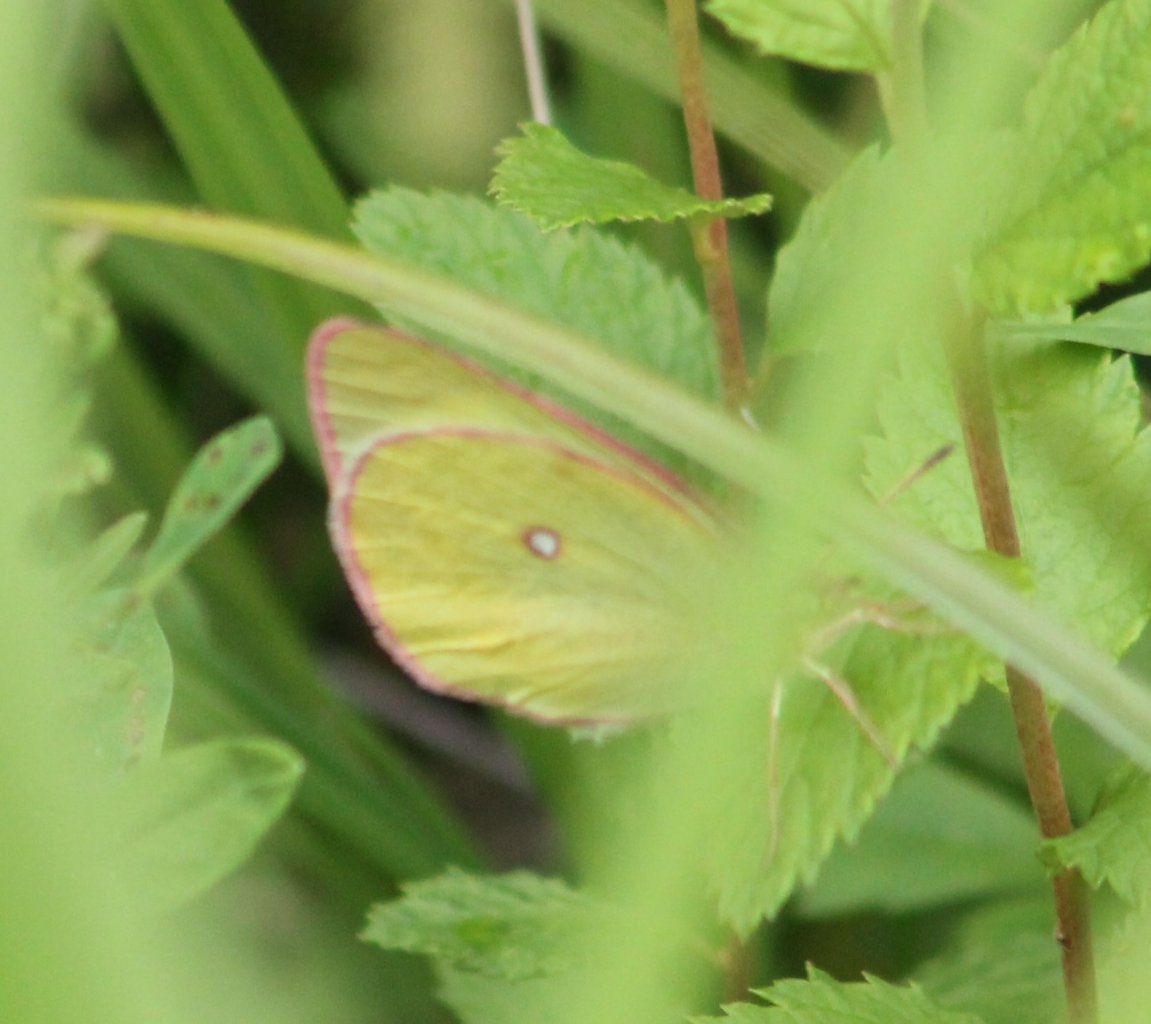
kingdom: Animalia
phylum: Arthropoda
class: Insecta
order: Lepidoptera
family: Pieridae
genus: Colias
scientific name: Colias interior
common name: Pink-edged Sulphur
